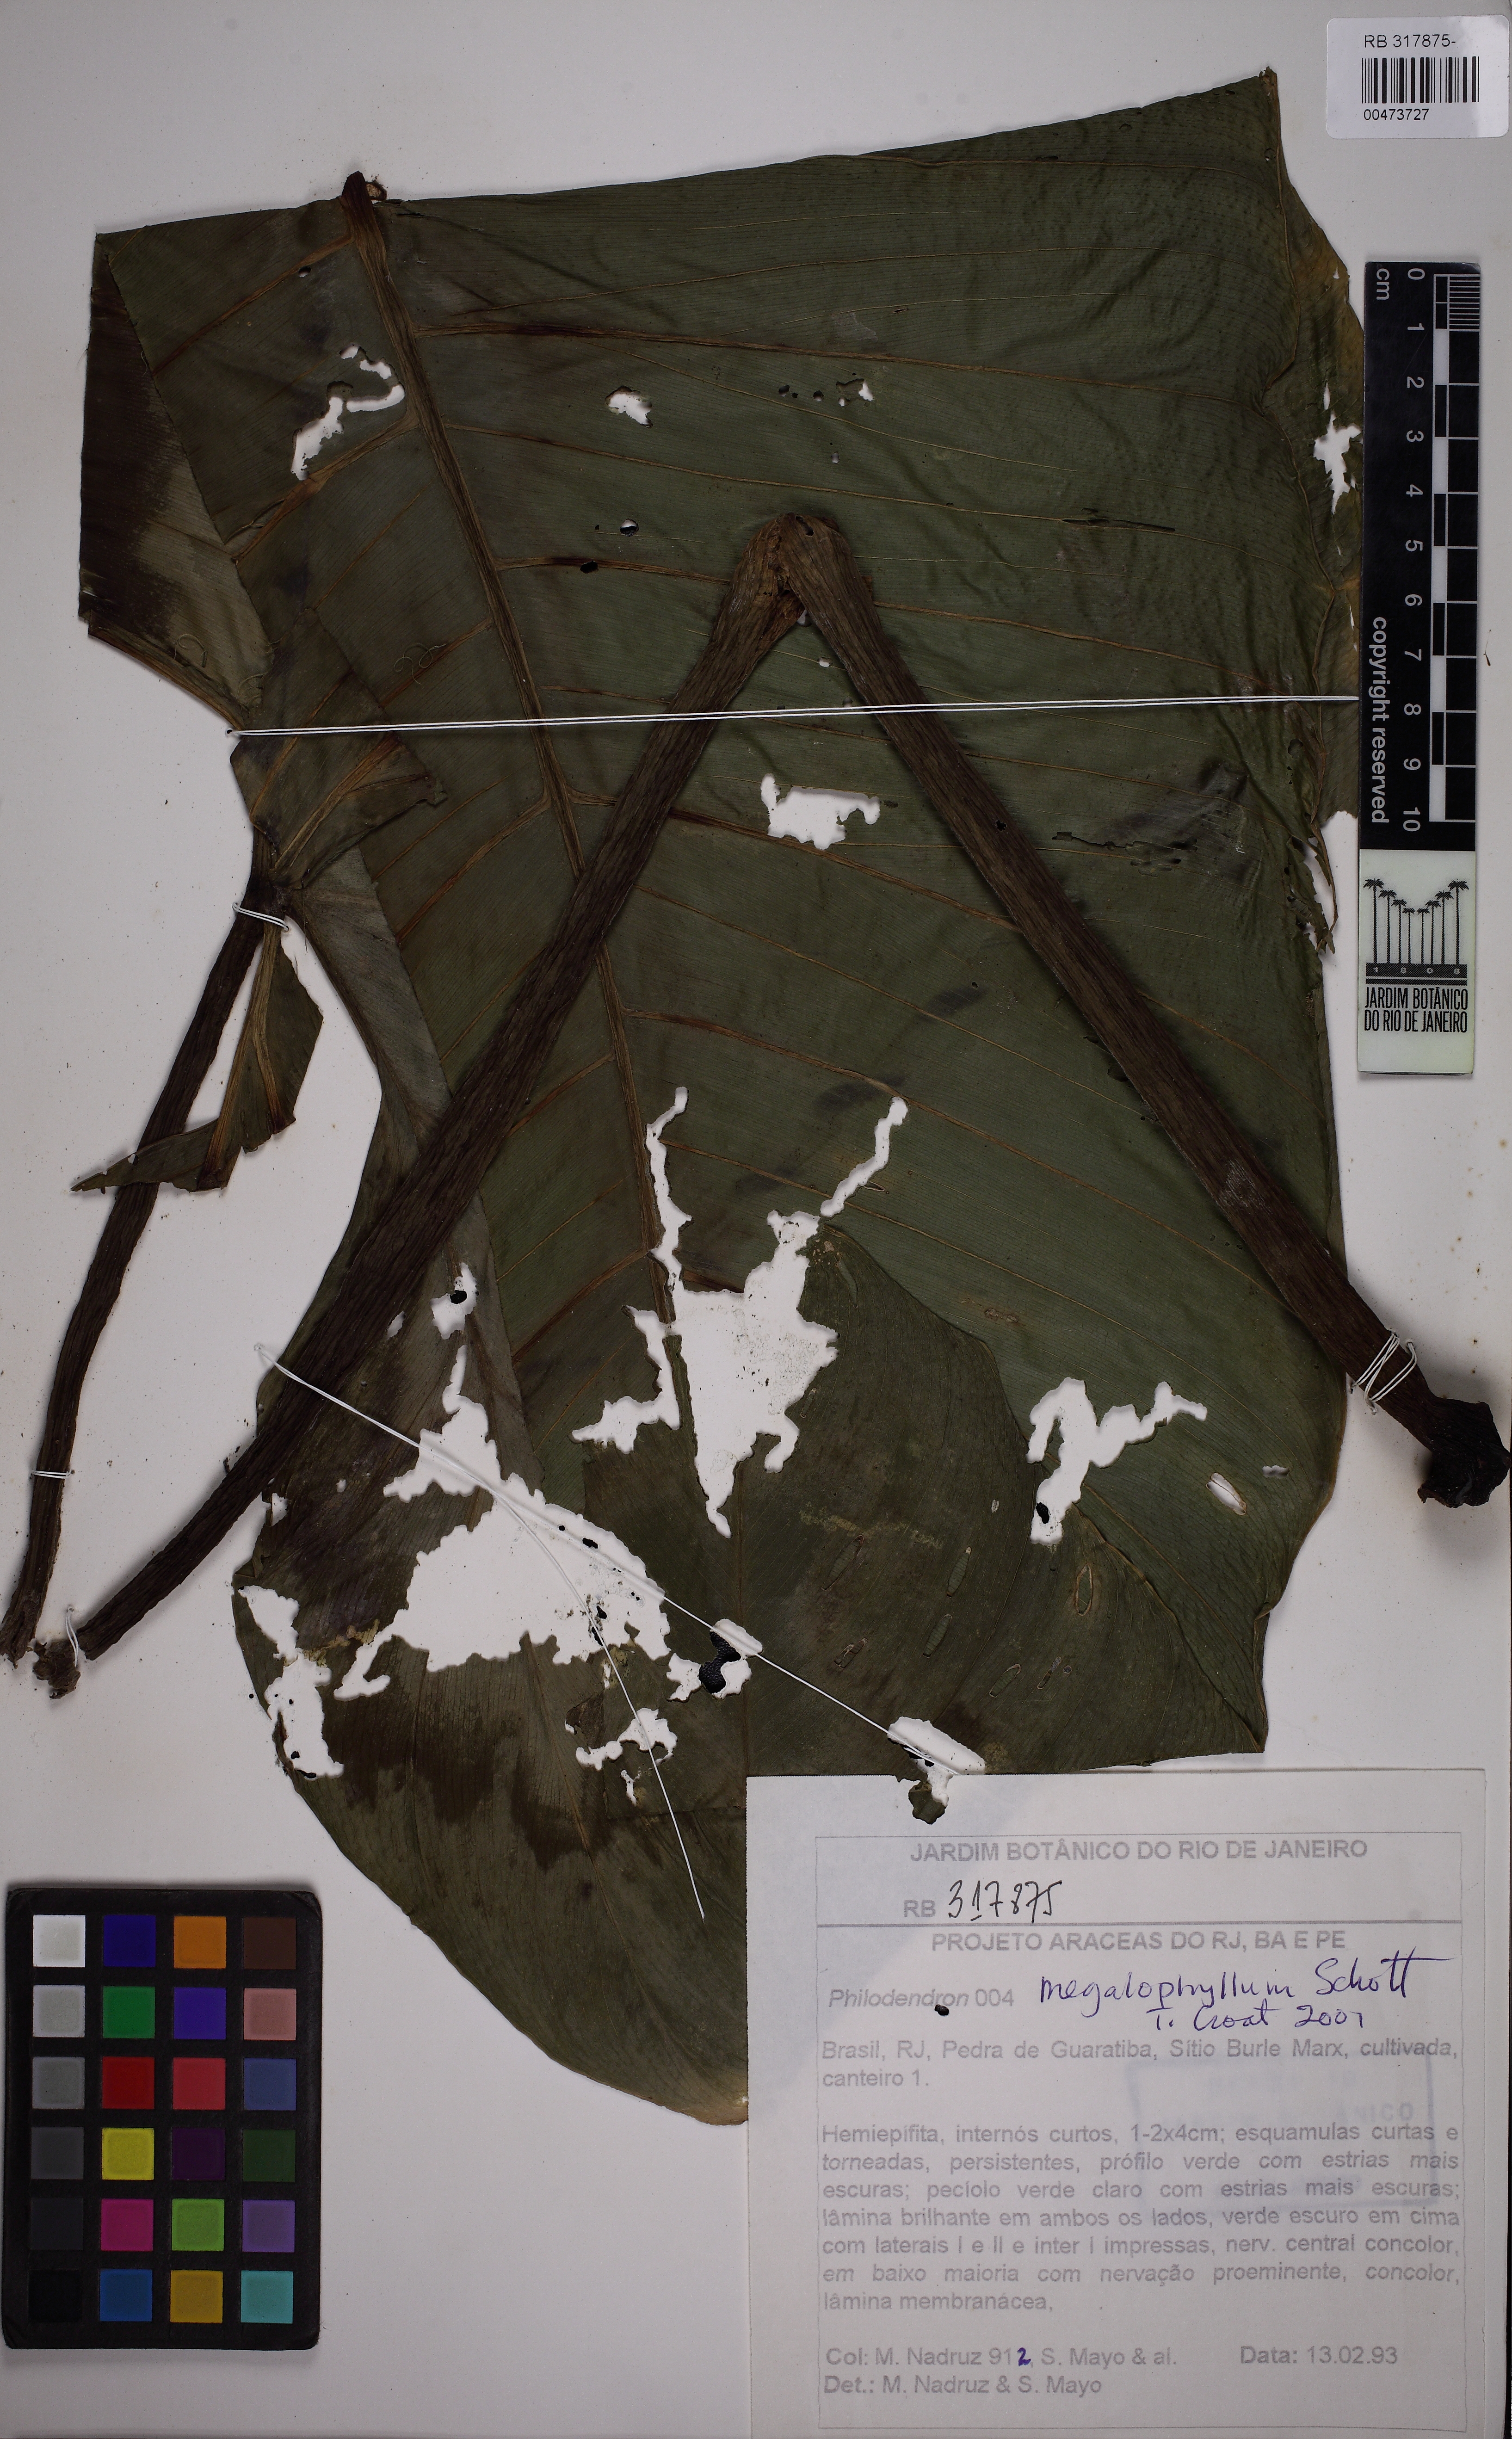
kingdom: Plantae
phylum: Tracheophyta
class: Liliopsida
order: Alismatales
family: Araceae
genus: Philodendron
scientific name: Philodendron megalophyllum
